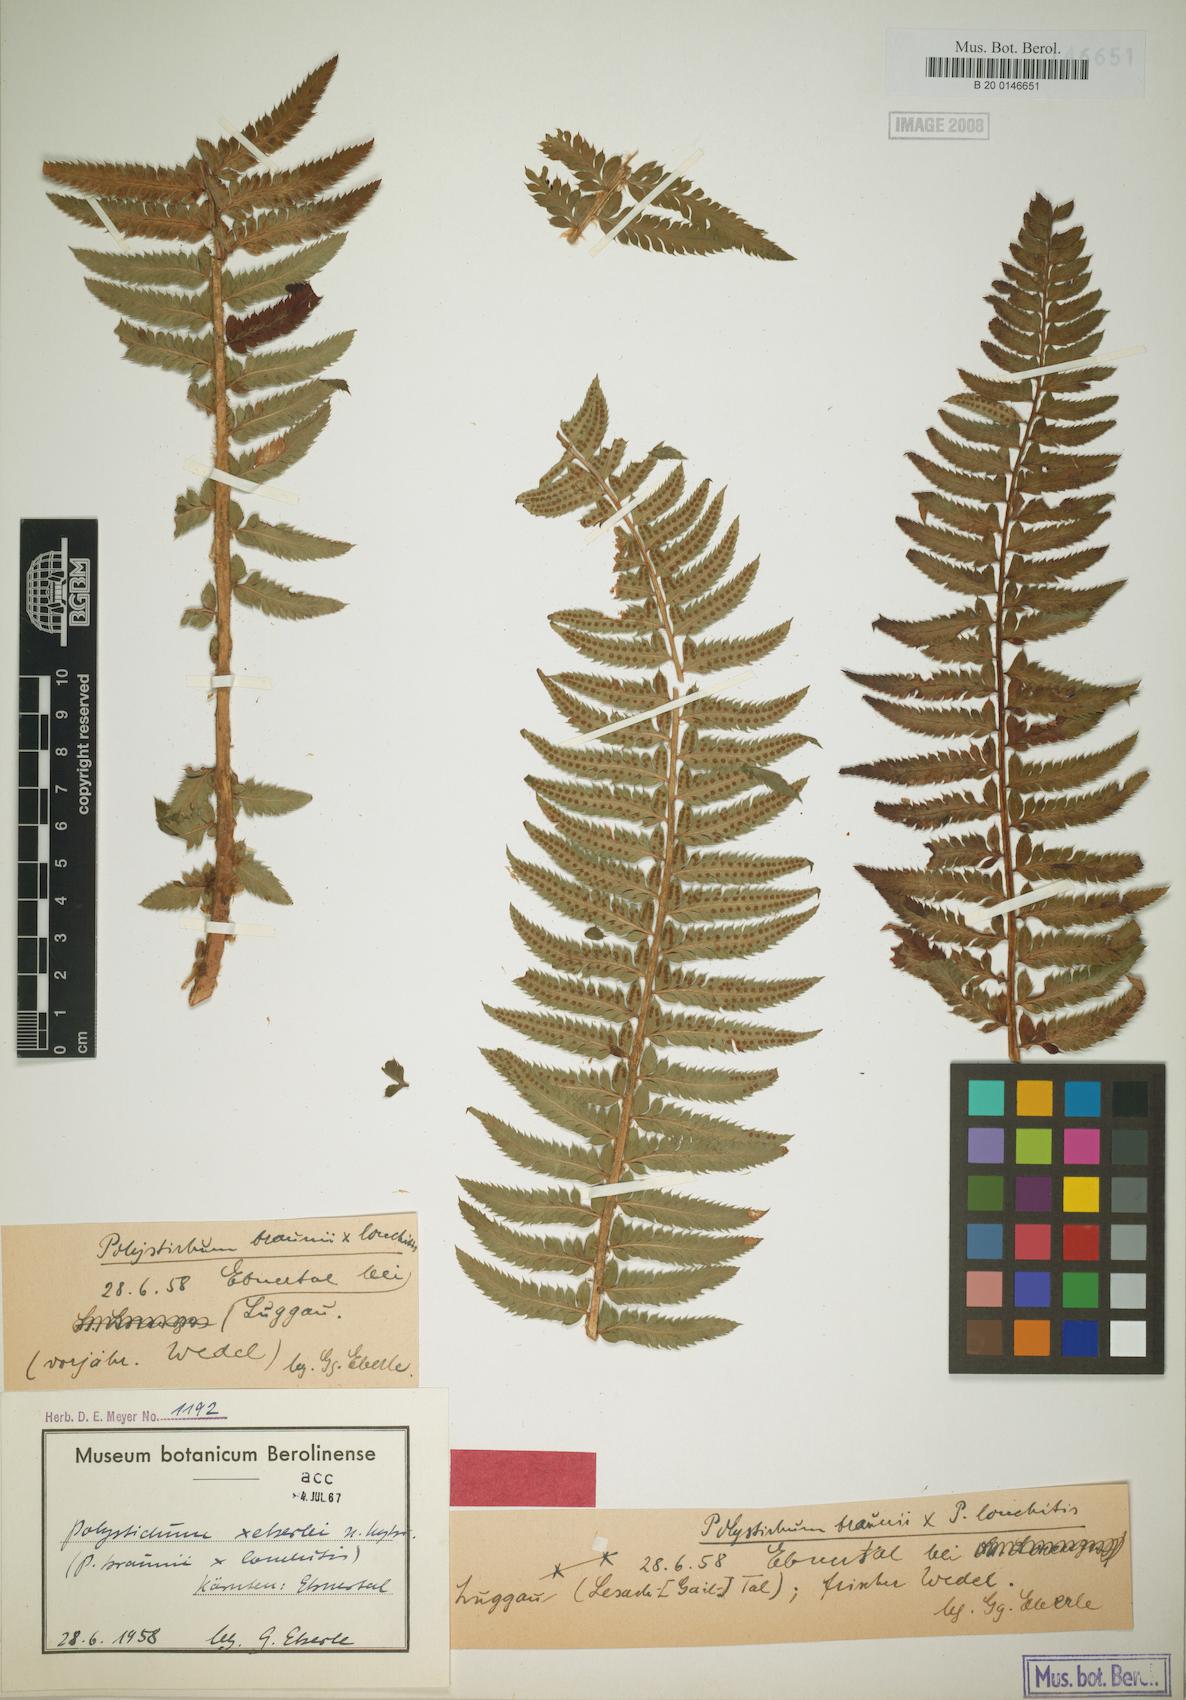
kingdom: Plantae
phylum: Tracheophyta
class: Polypodiopsida
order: Polypodiales
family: Dryopteridaceae
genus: Polystichum
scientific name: Polystichum illyricum
